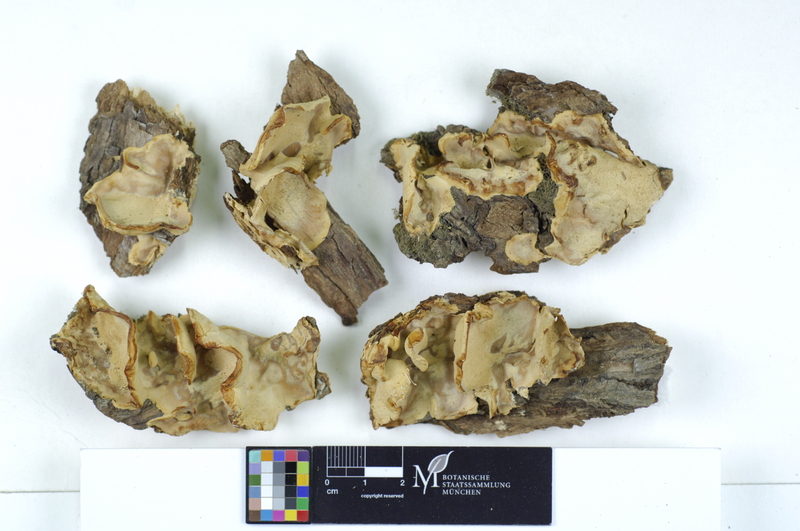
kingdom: Plantae
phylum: Tracheophyta
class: Magnoliopsida
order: Malpighiales
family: Salicaceae
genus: Salix
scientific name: Salix alba
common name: White willow
